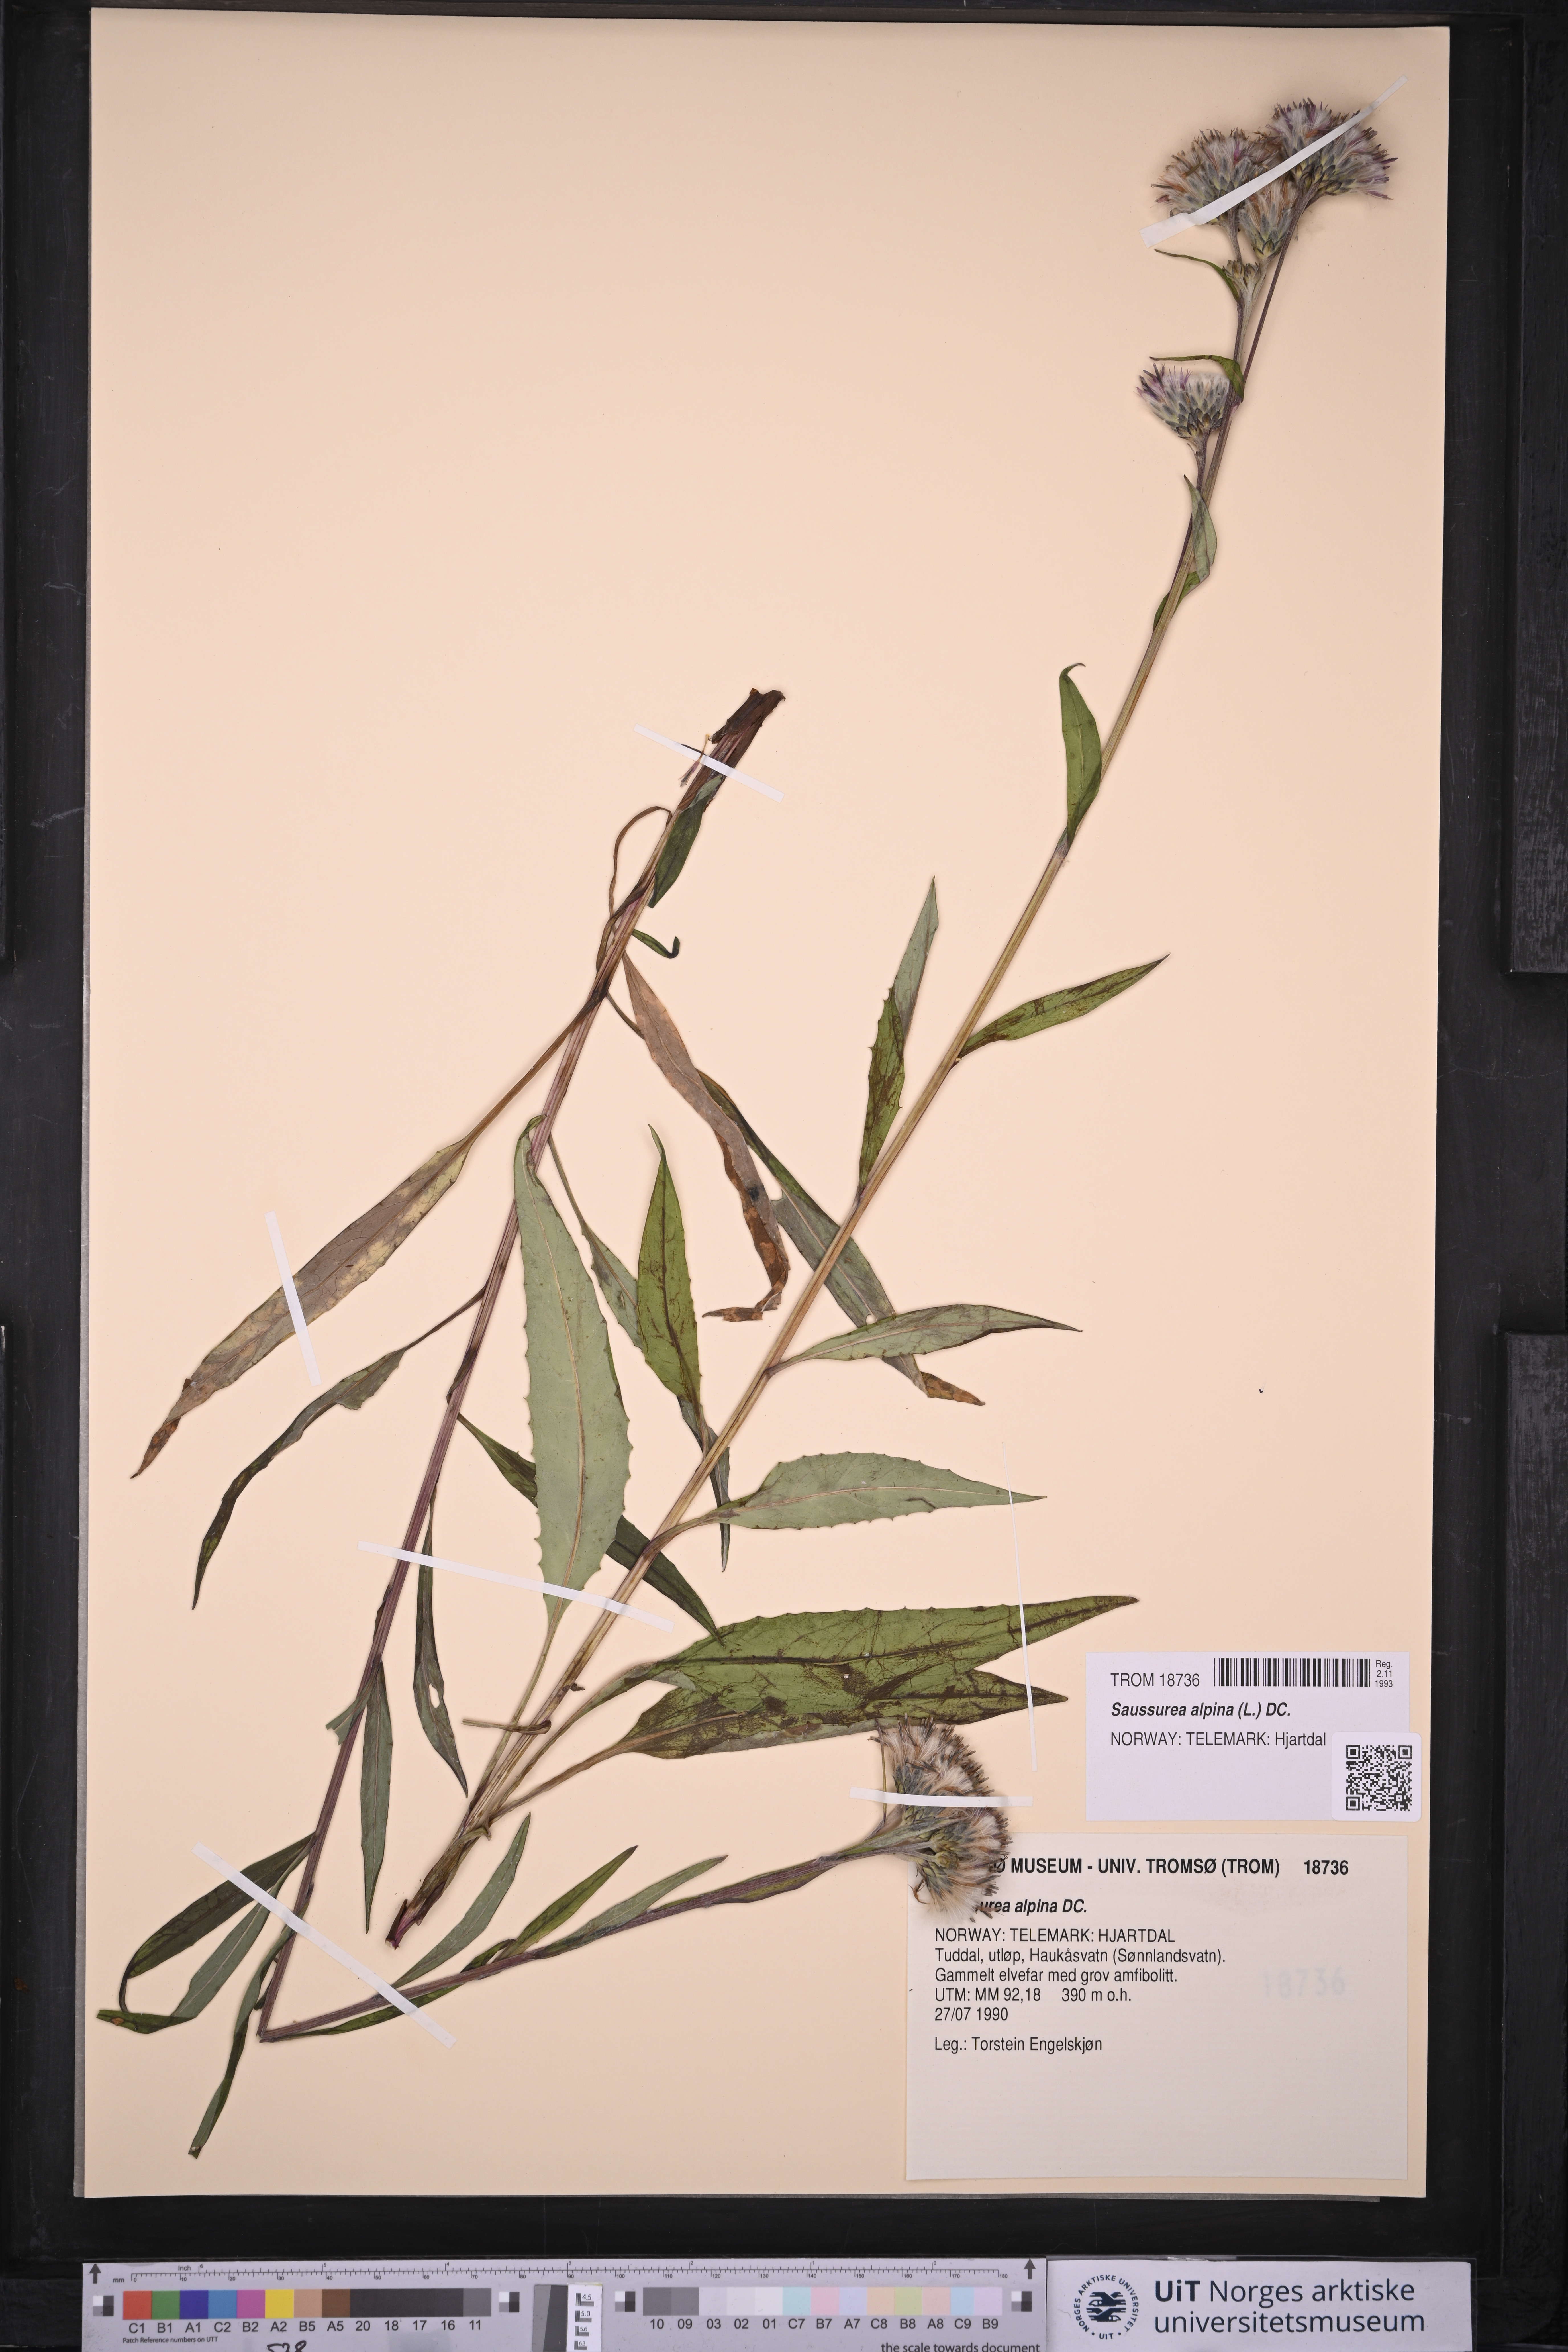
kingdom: Plantae
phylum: Tracheophyta
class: Magnoliopsida
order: Asterales
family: Asteraceae
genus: Saussurea
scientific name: Saussurea alpina
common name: Alpine saw-wort
